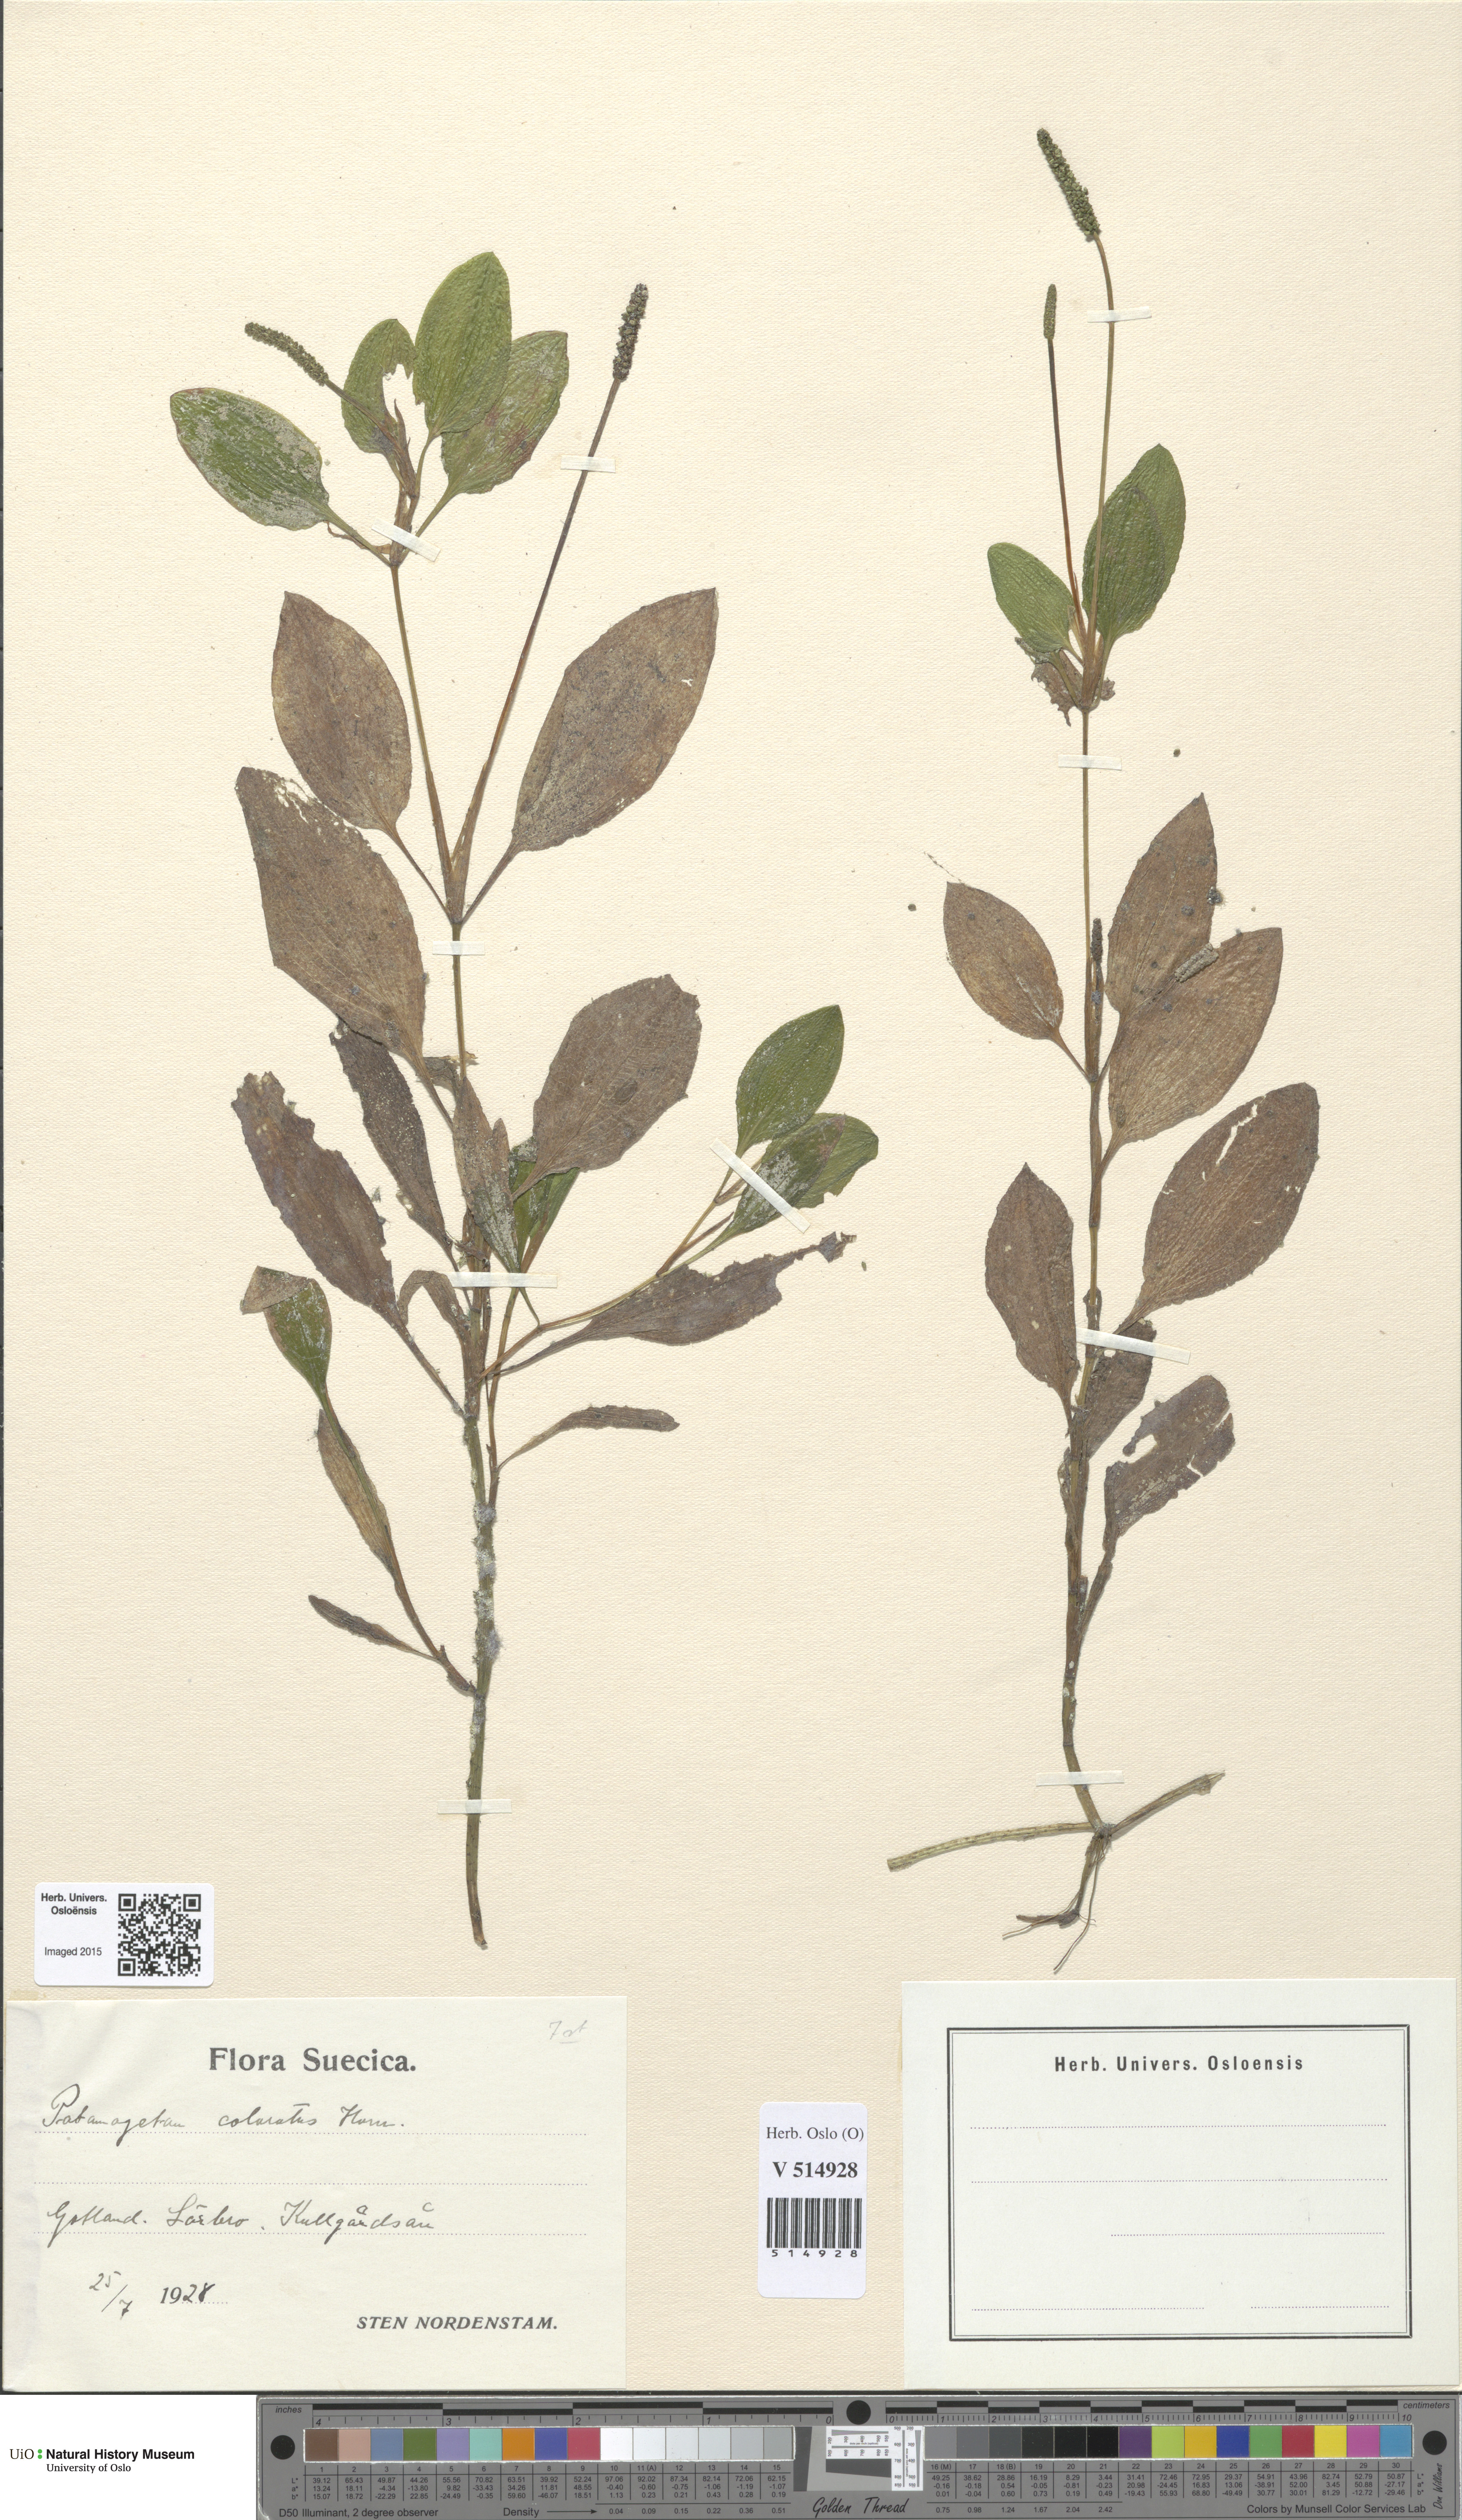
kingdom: Plantae
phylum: Tracheophyta
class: Liliopsida
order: Alismatales
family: Potamogetonaceae
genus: Potamogeton
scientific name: Potamogeton coloratus
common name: Fen pondweed
